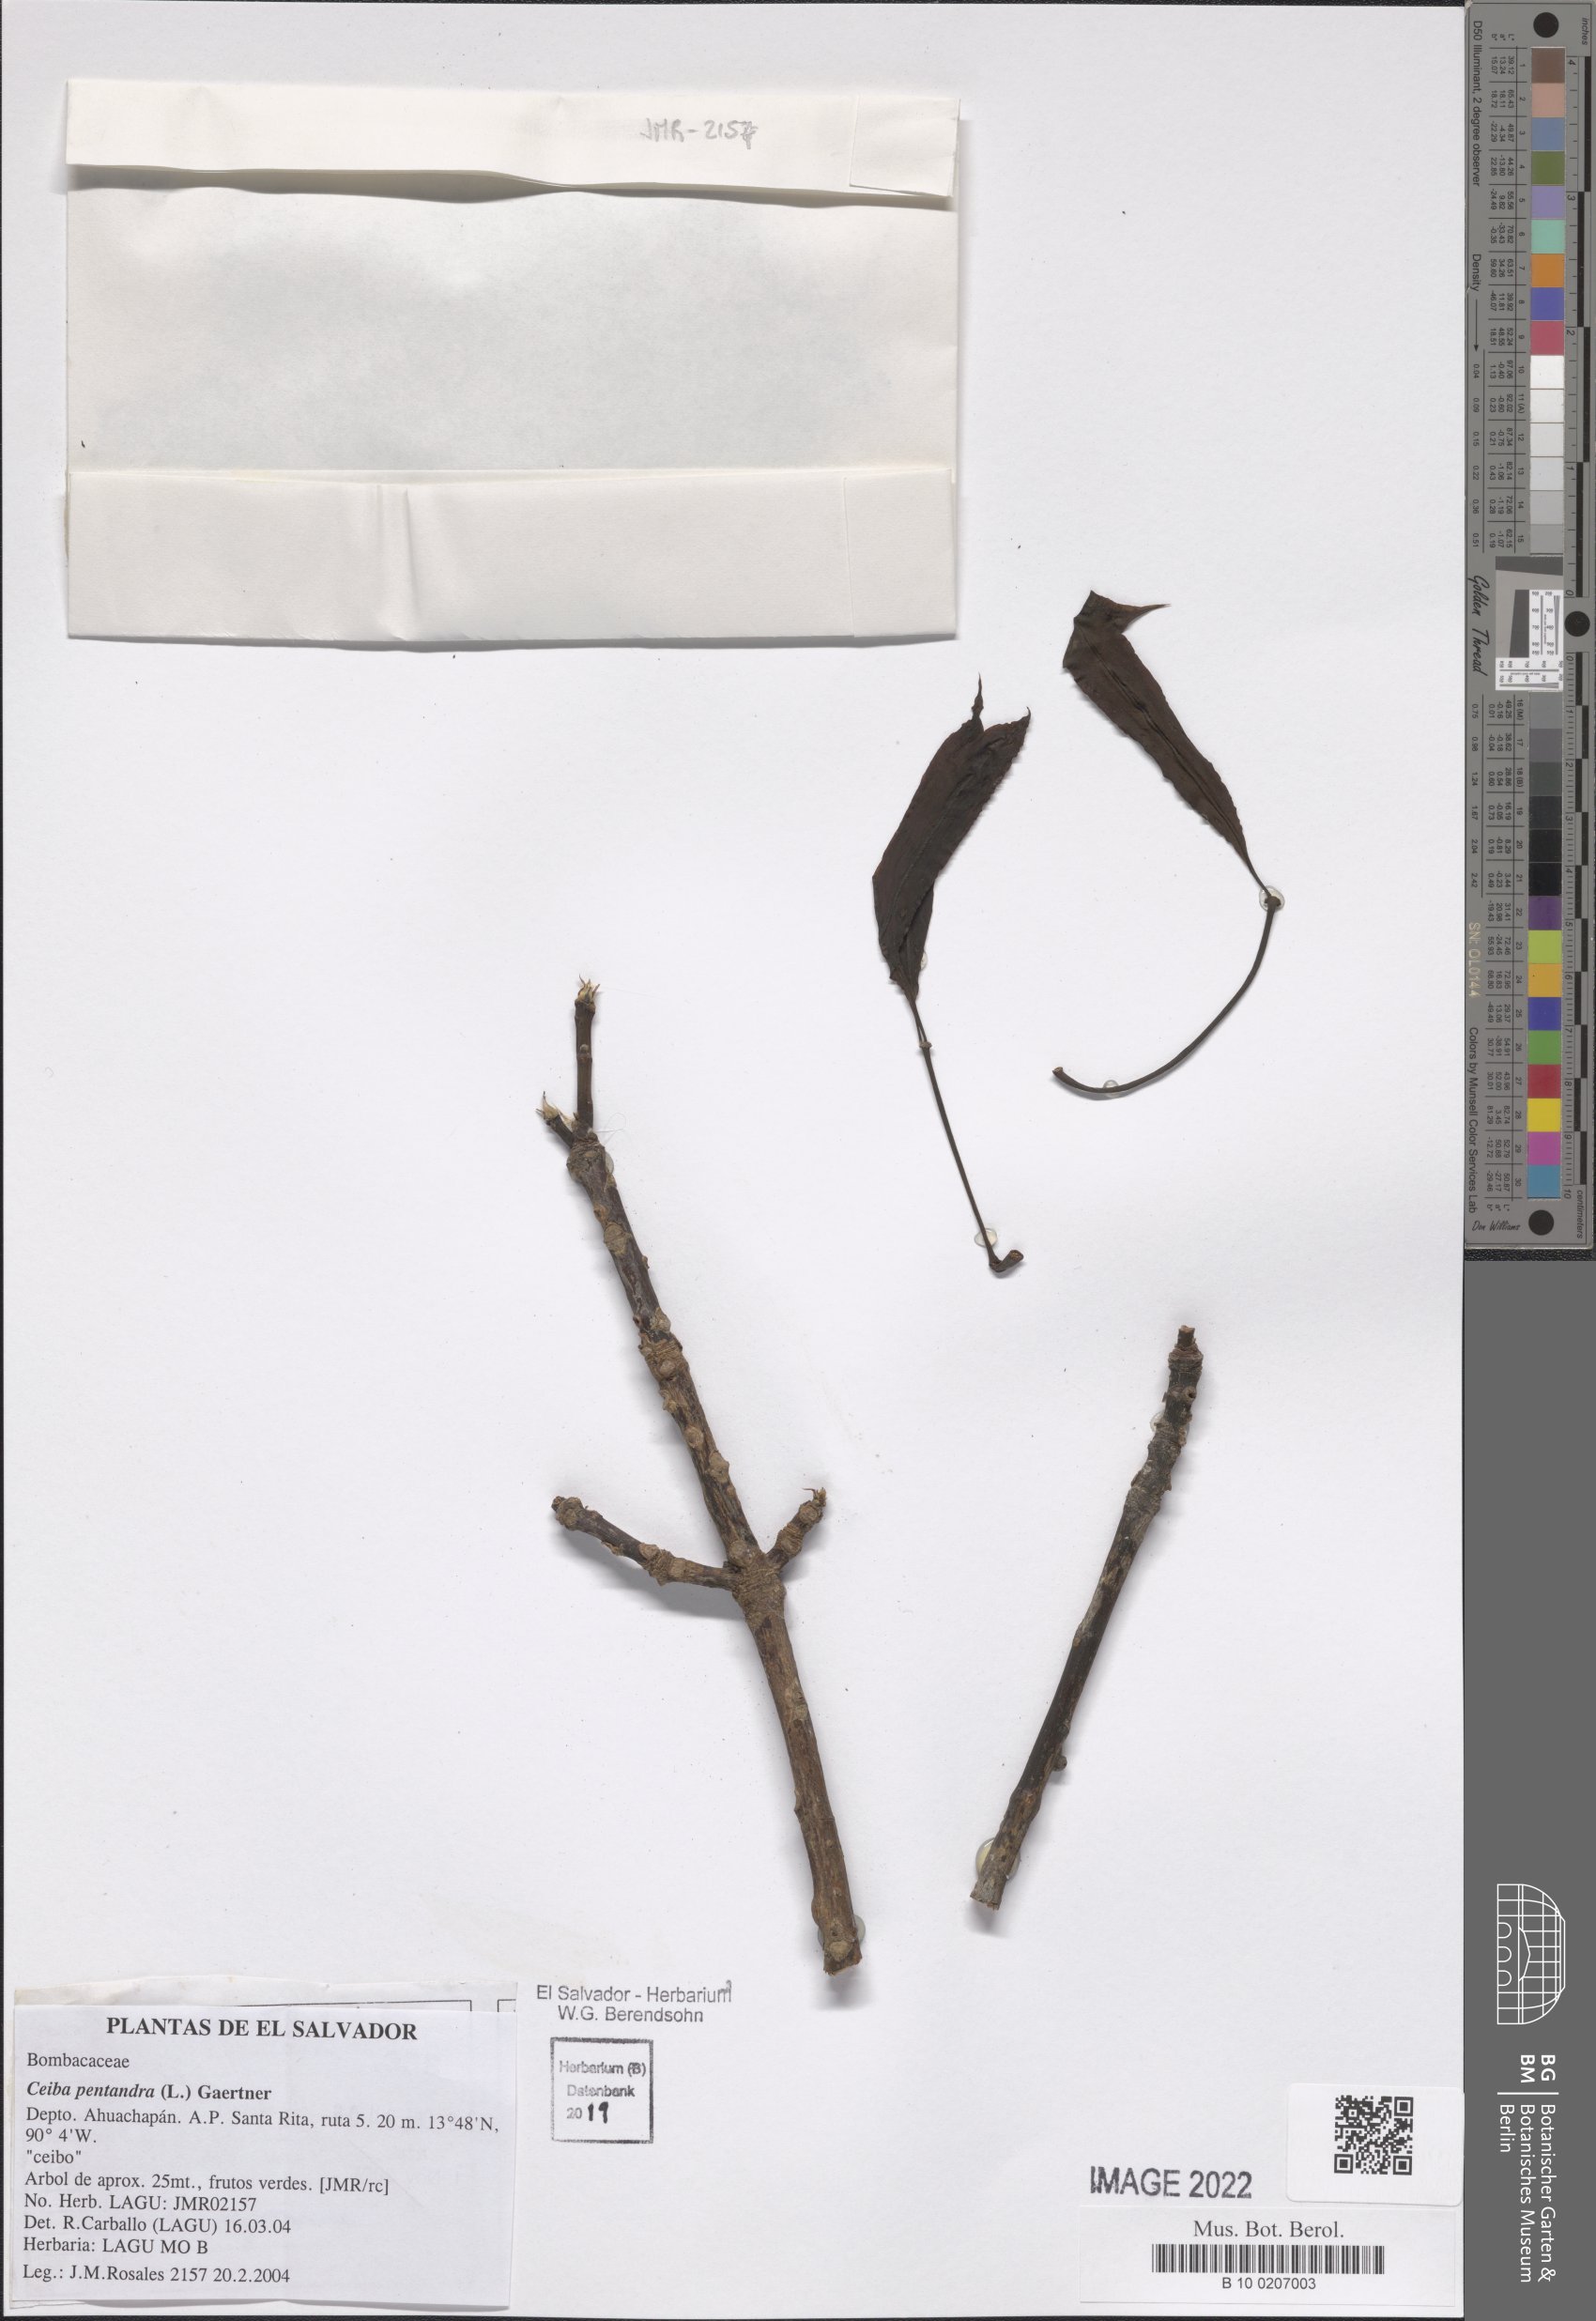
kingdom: Plantae
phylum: Tracheophyta
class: Magnoliopsida
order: Malvales
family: Malvaceae
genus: Ceiba
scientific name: Ceiba pentandra
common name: Kapok
